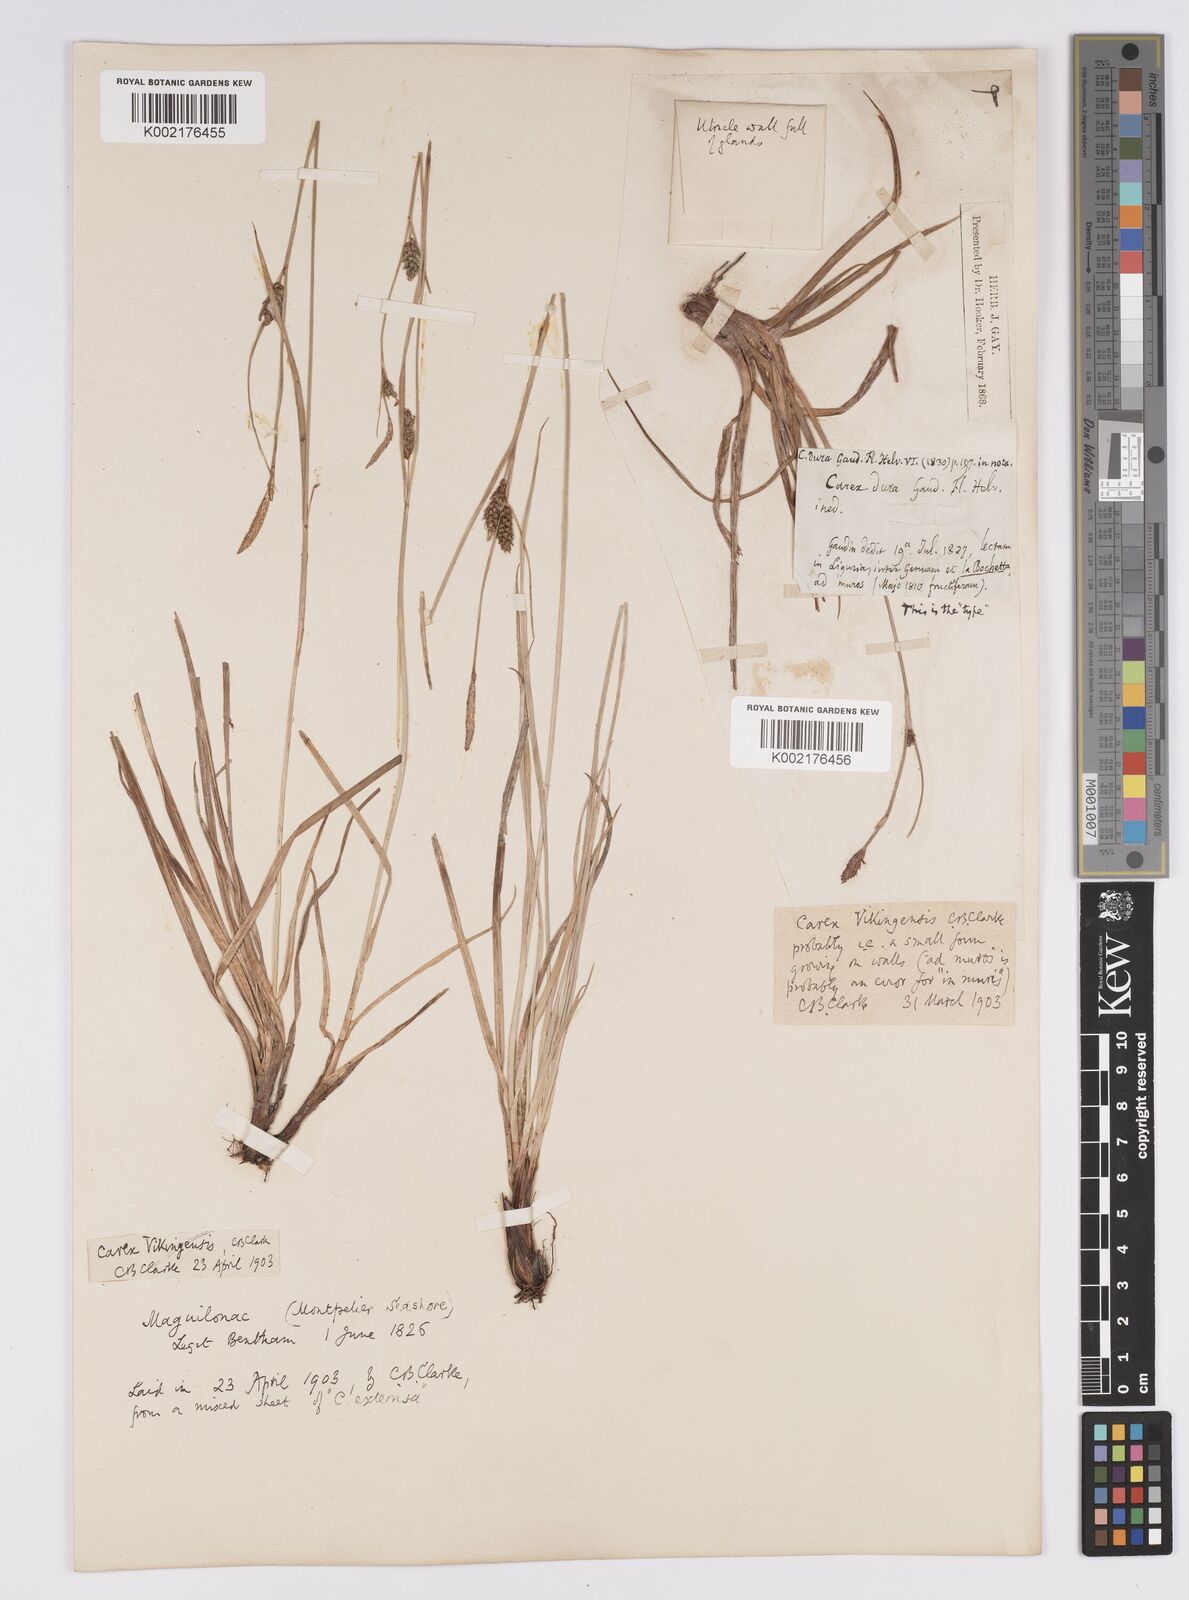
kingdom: Plantae
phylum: Tracheophyta
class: Liliopsida
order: Poales
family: Cyperaceae
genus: Carex
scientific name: Carex distans
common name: Distant sedge
